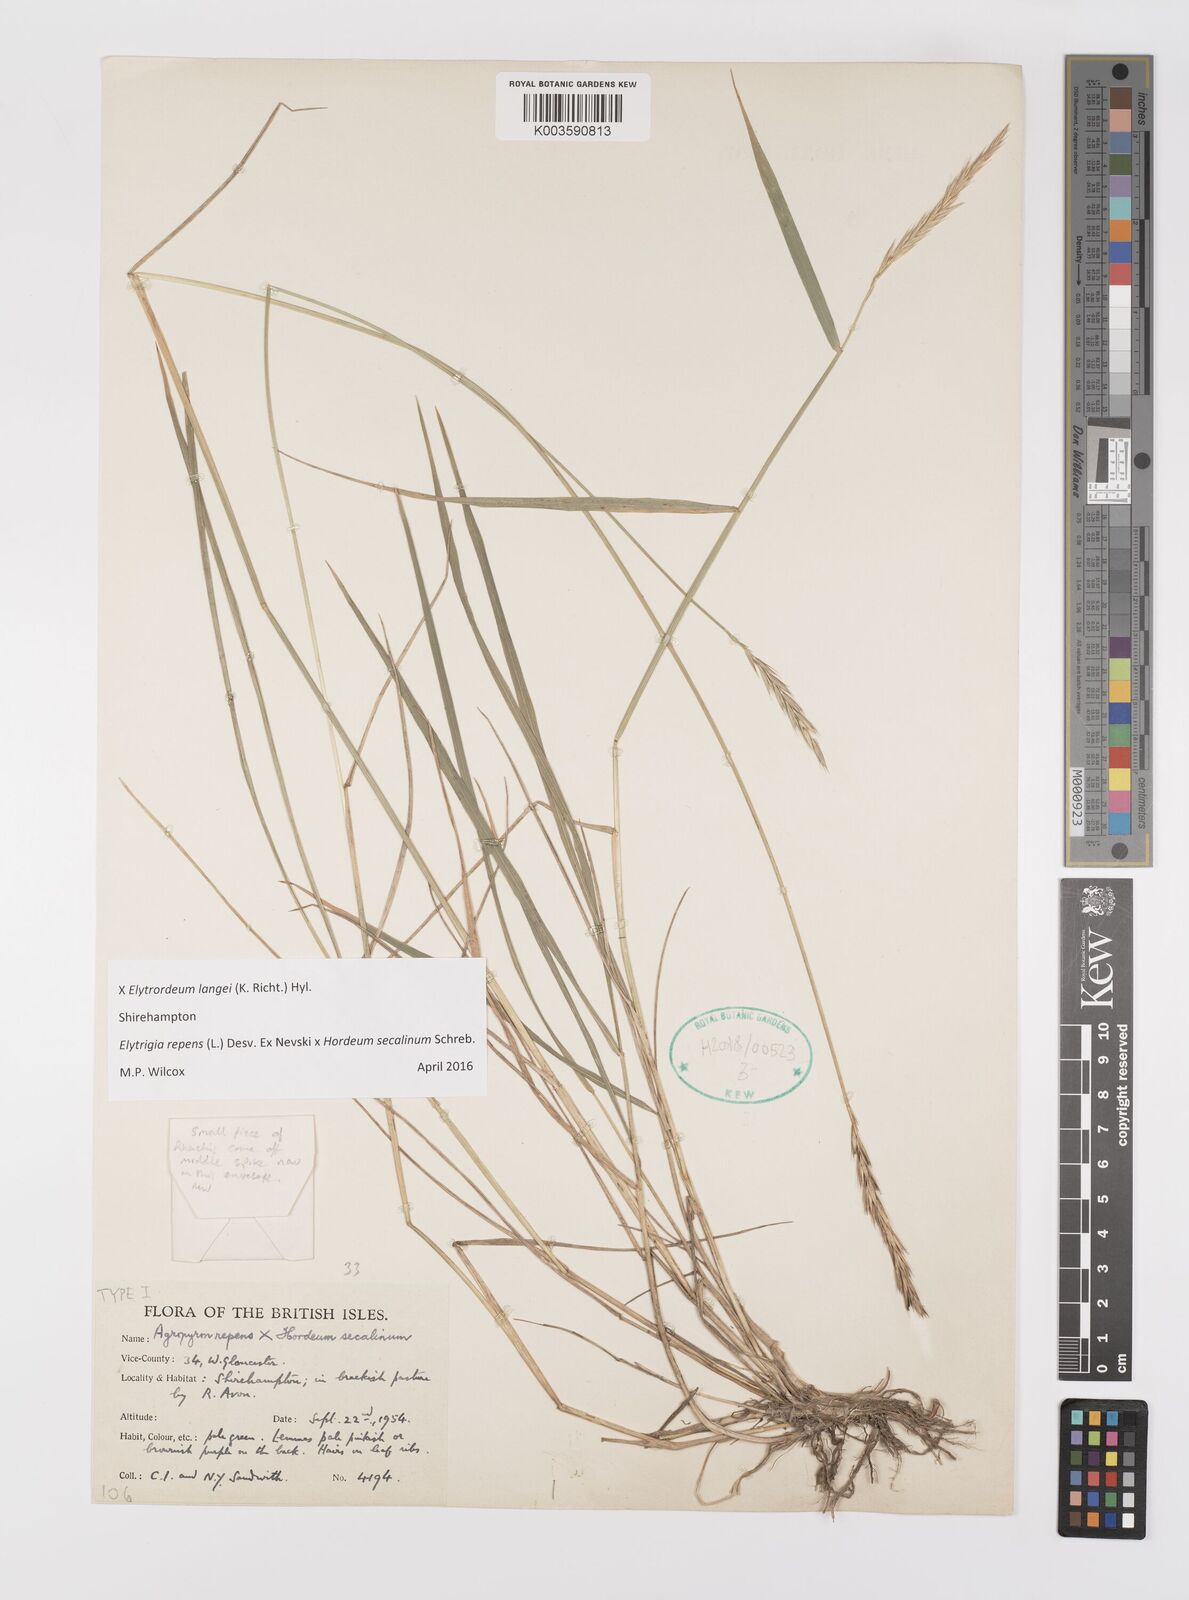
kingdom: Plantae
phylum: Tracheophyta
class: Liliopsida
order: Poales
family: Poaceae
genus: Elyhordeum
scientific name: Elyhordeum langei
